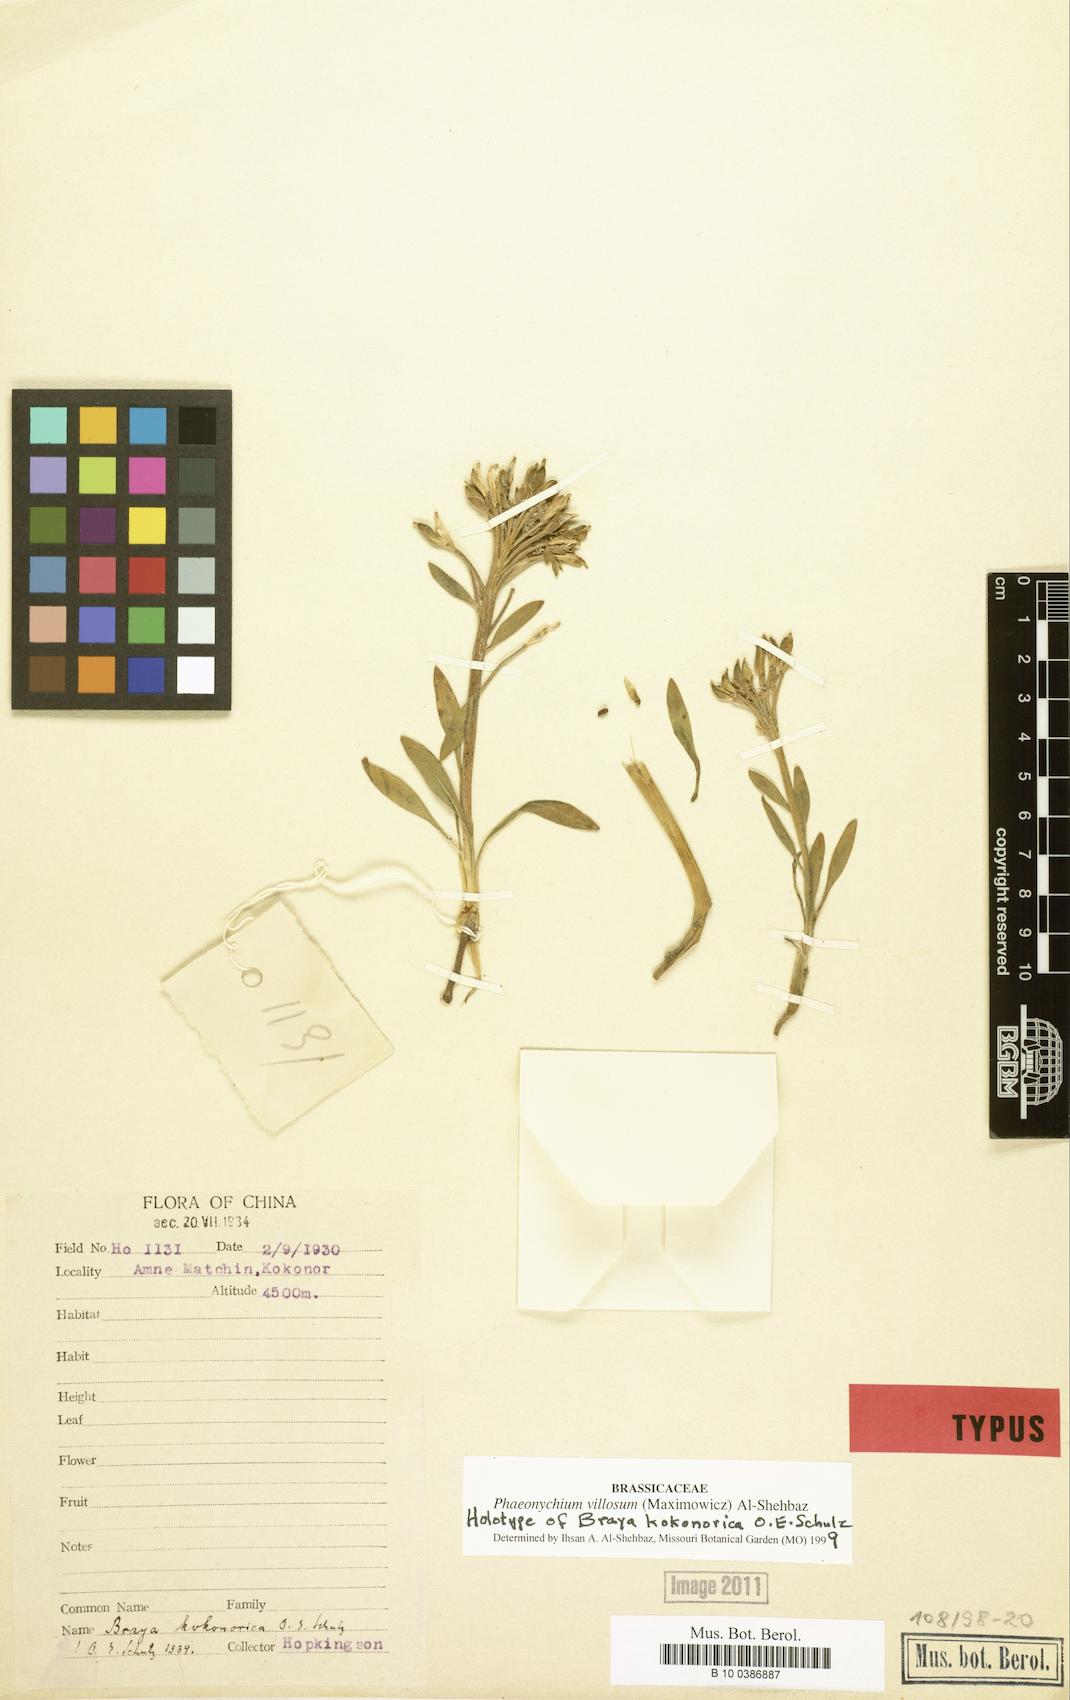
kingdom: Plantae
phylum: Tracheophyta
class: Magnoliopsida
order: Brassicales
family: Brassicaceae
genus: Solms-laubachia
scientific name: Solms-laubachia villosa
